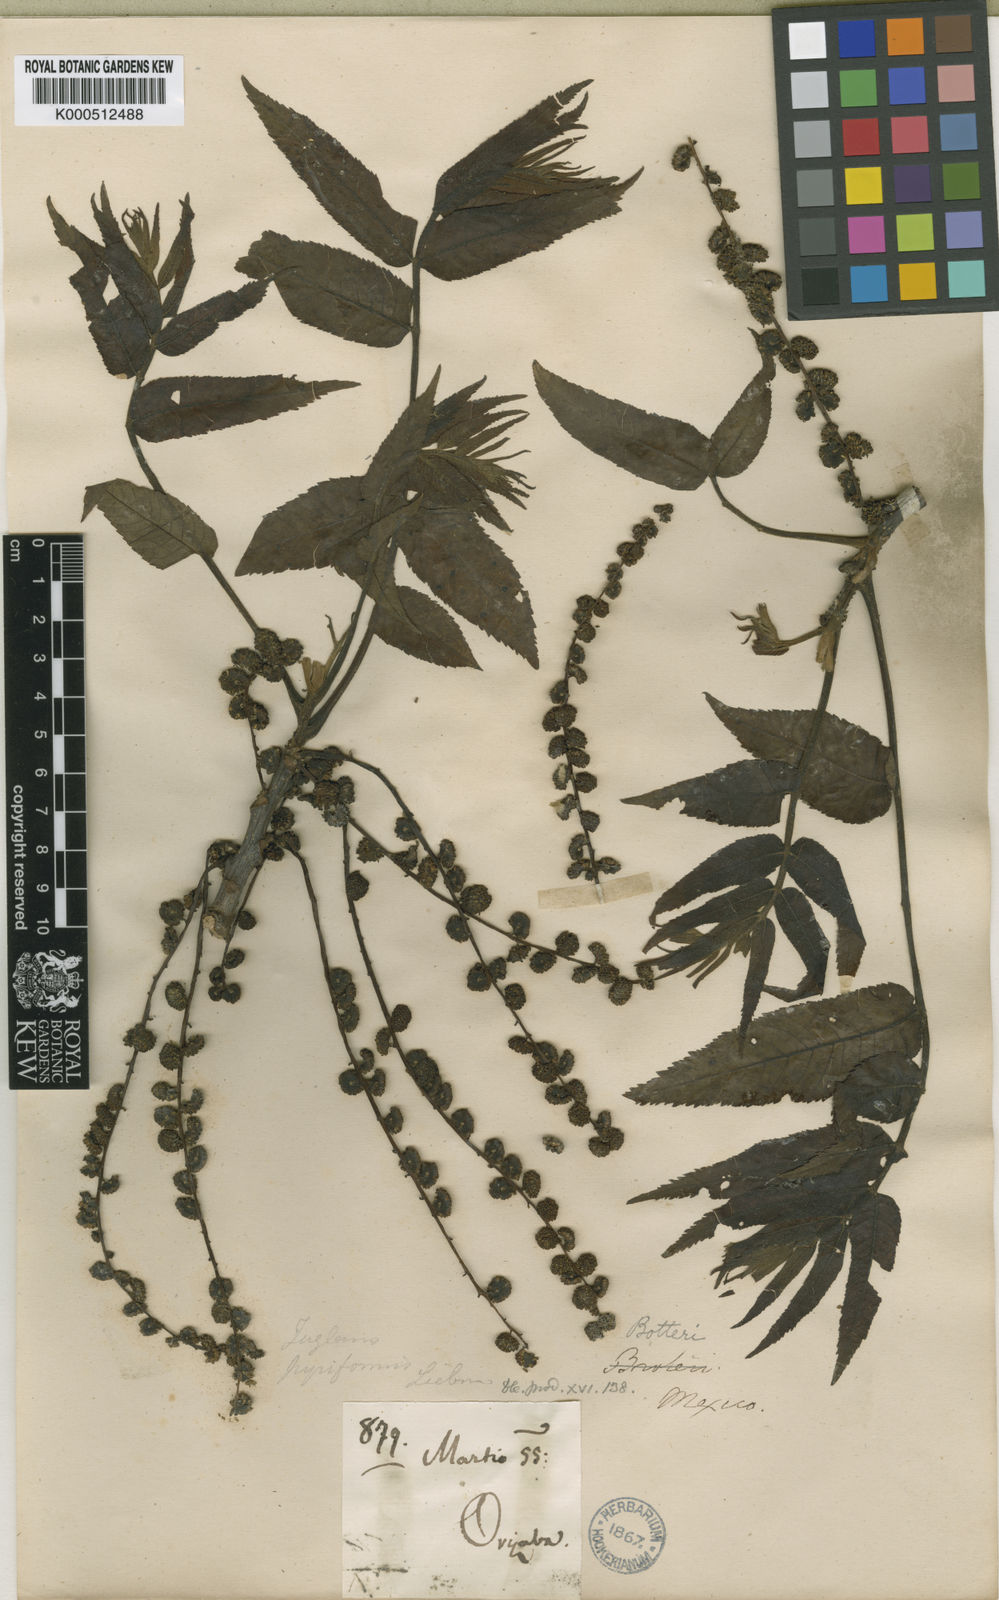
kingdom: Plantae
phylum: Tracheophyta
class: Magnoliopsida
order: Fagales
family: Juglandaceae
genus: Juglans
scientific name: Juglans pyriformis
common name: Walnuts
